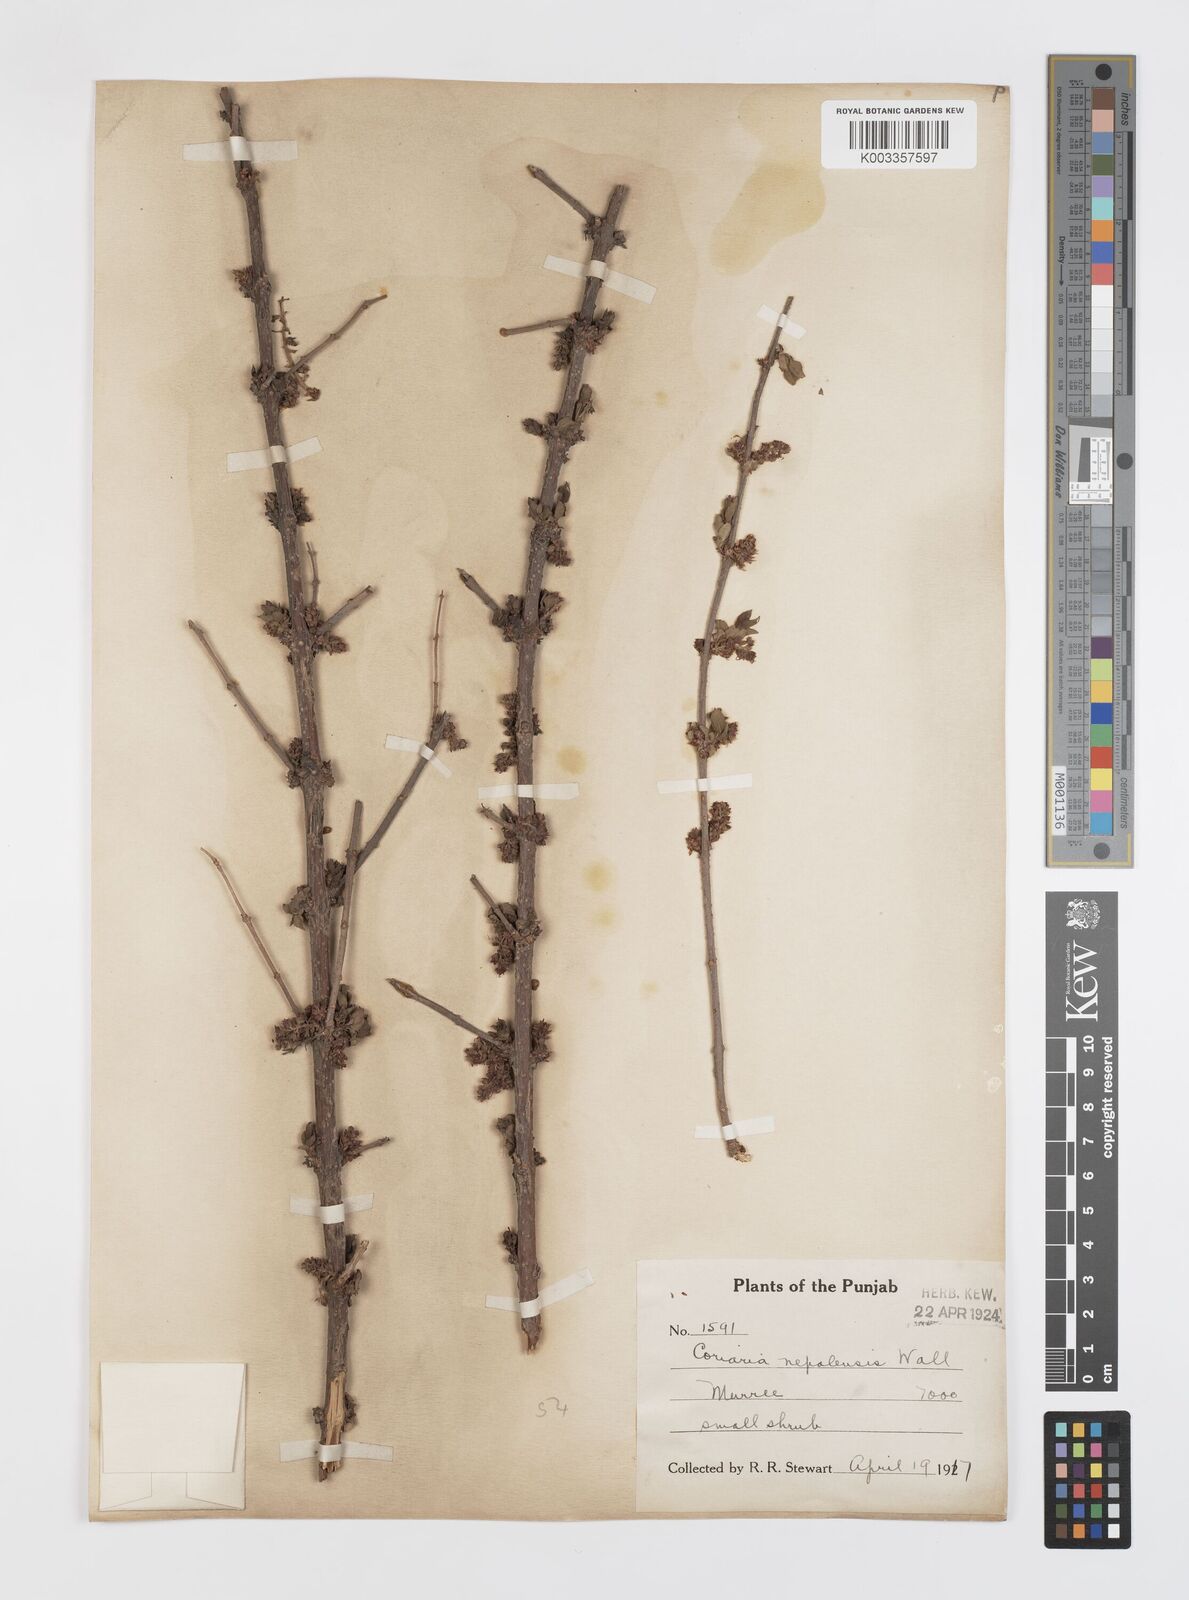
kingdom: Plantae
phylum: Tracheophyta
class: Magnoliopsida
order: Cucurbitales
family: Coriariaceae
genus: Coriaria
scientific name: Coriaria napalensis
